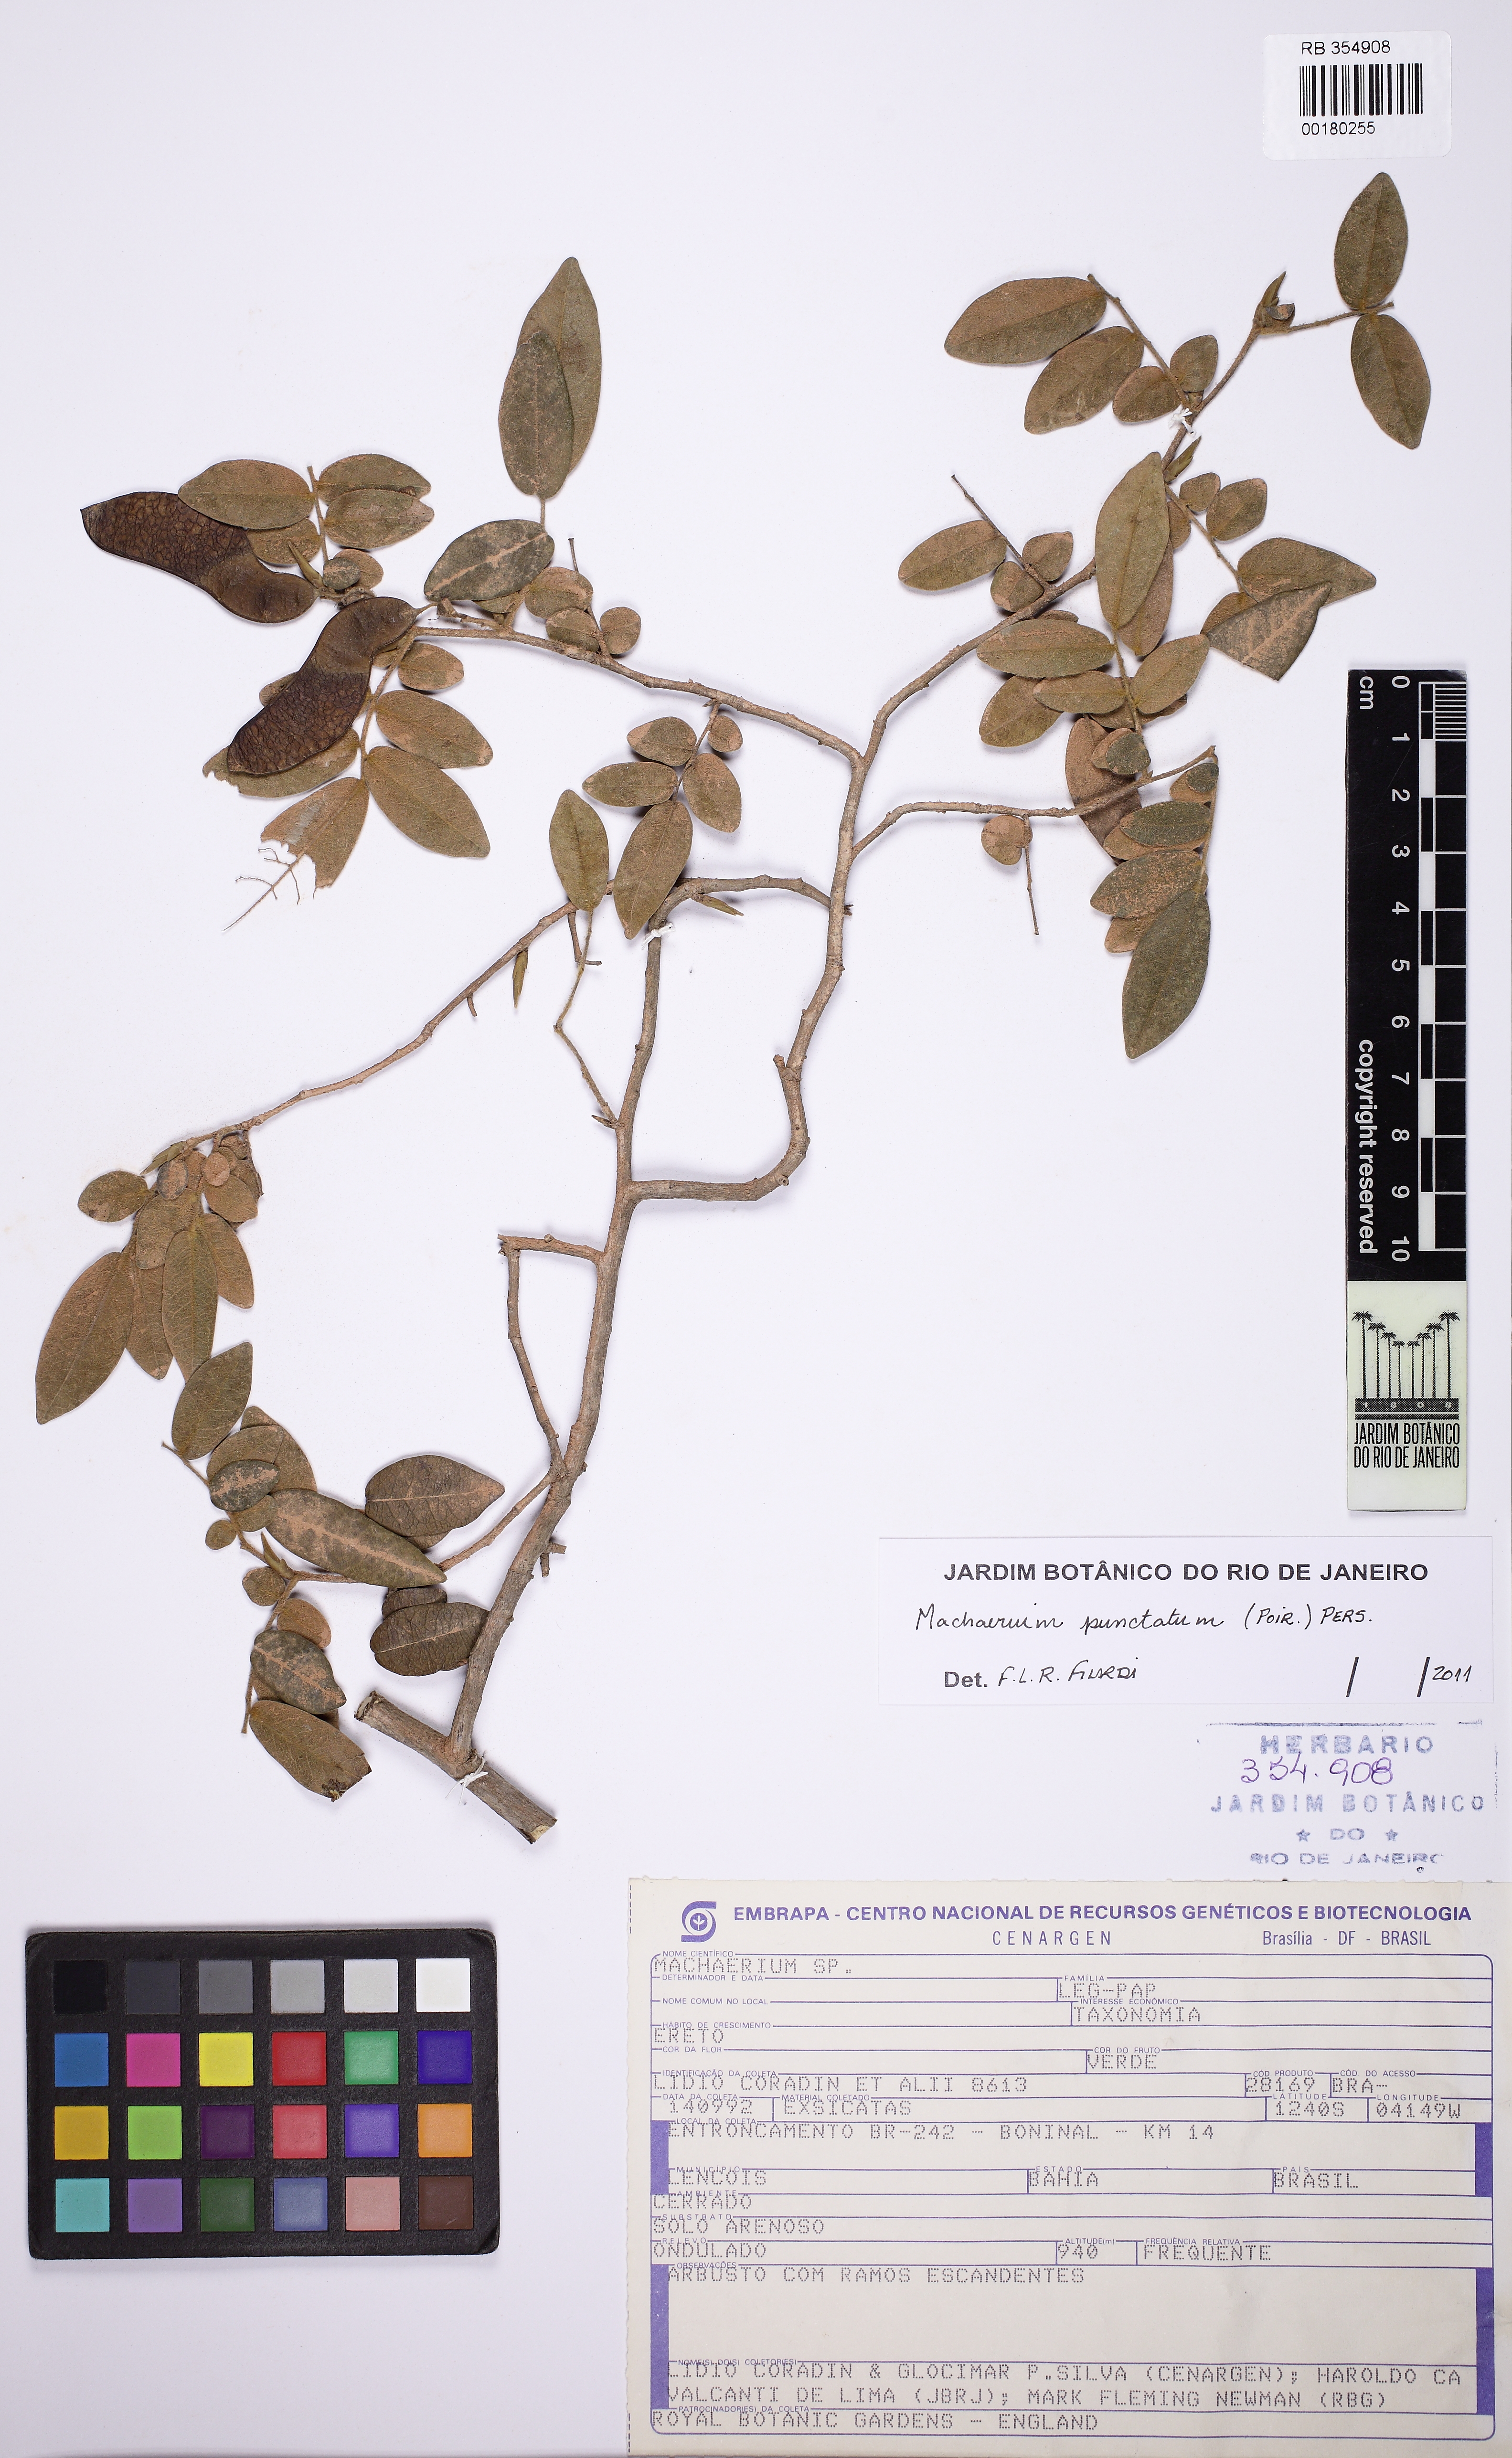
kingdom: Plantae
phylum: Tracheophyta
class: Magnoliopsida
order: Fabales
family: Fabaceae
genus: Machaerium
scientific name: Machaerium punctatum
